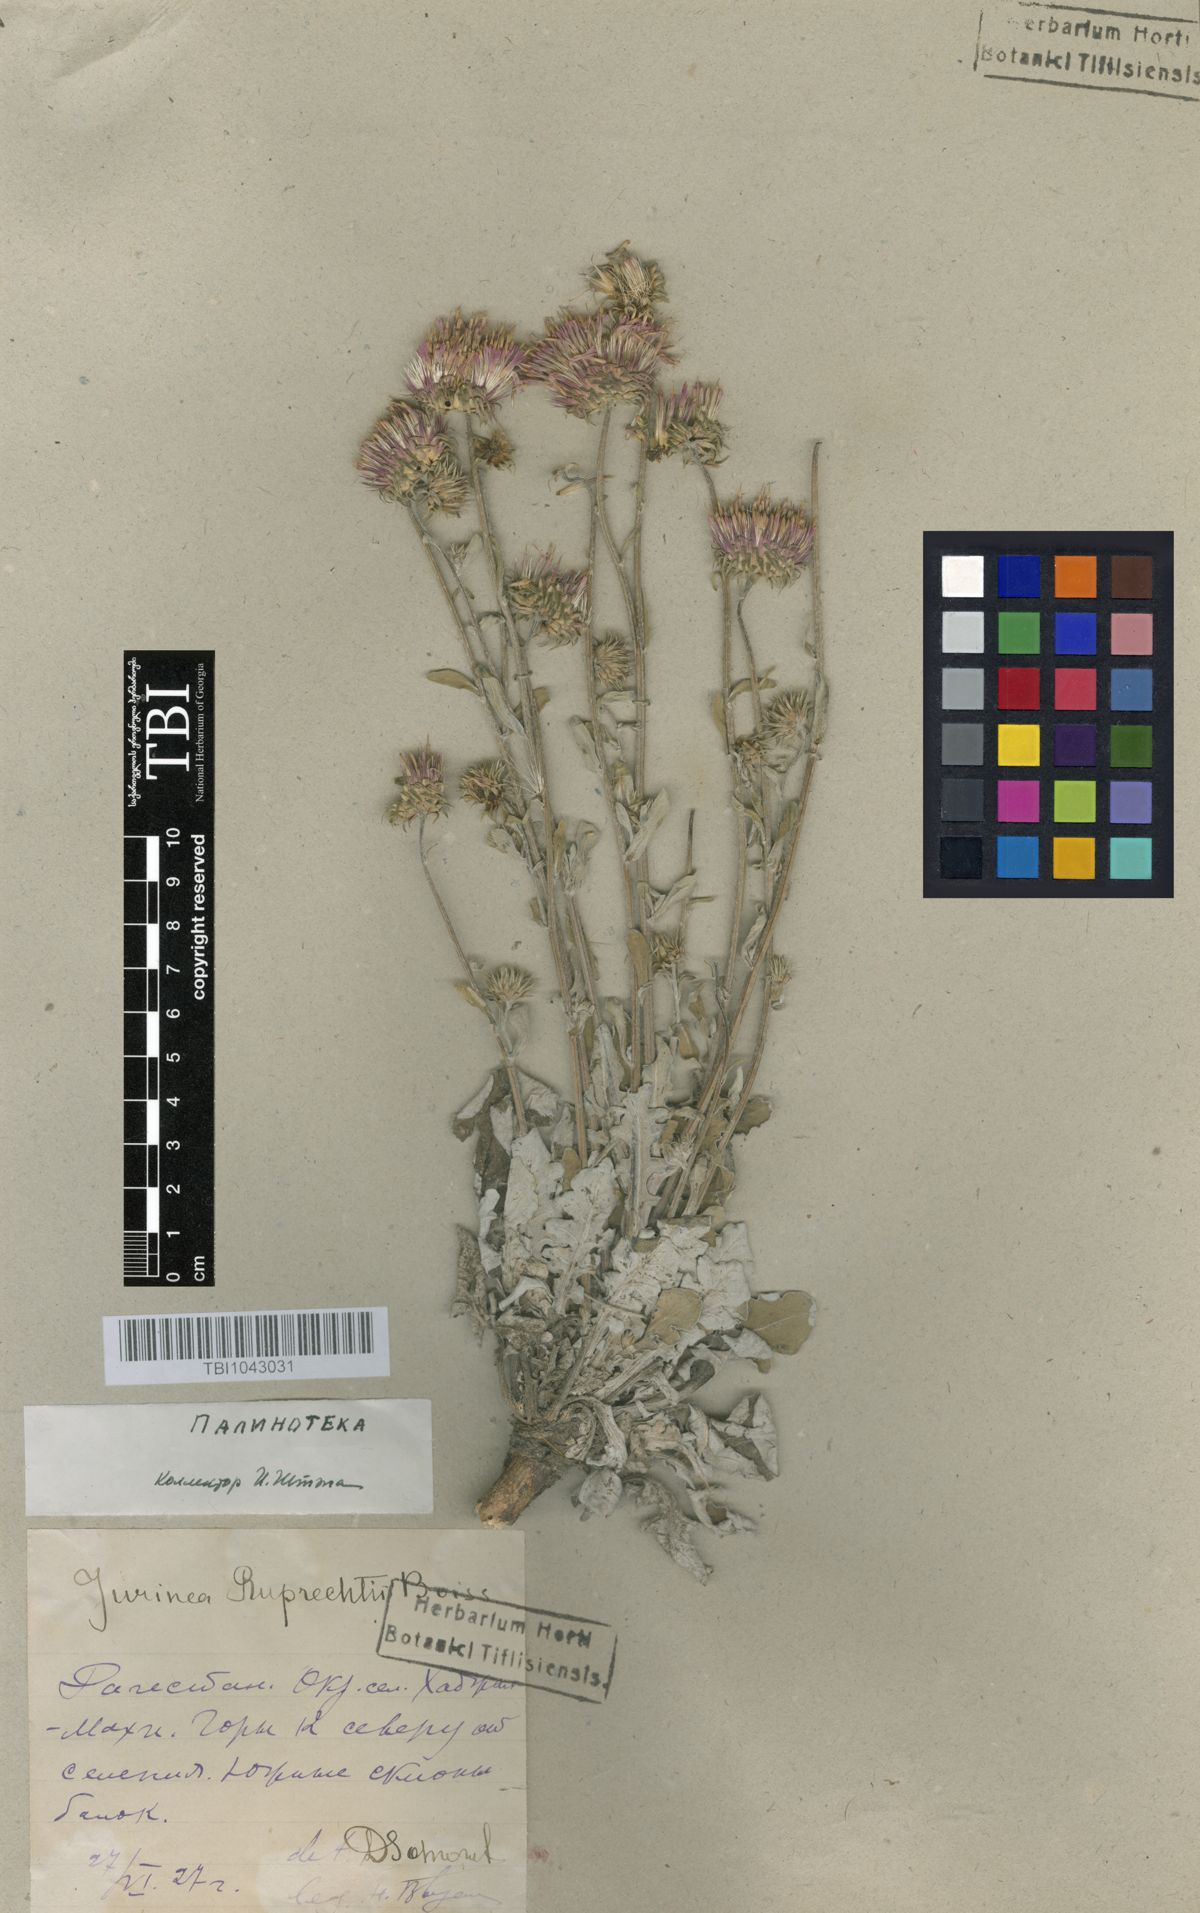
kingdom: Plantae
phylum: Tracheophyta
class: Magnoliopsida
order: Asterales
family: Asteraceae
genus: Jurinea
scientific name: Jurinea ruprechtii
